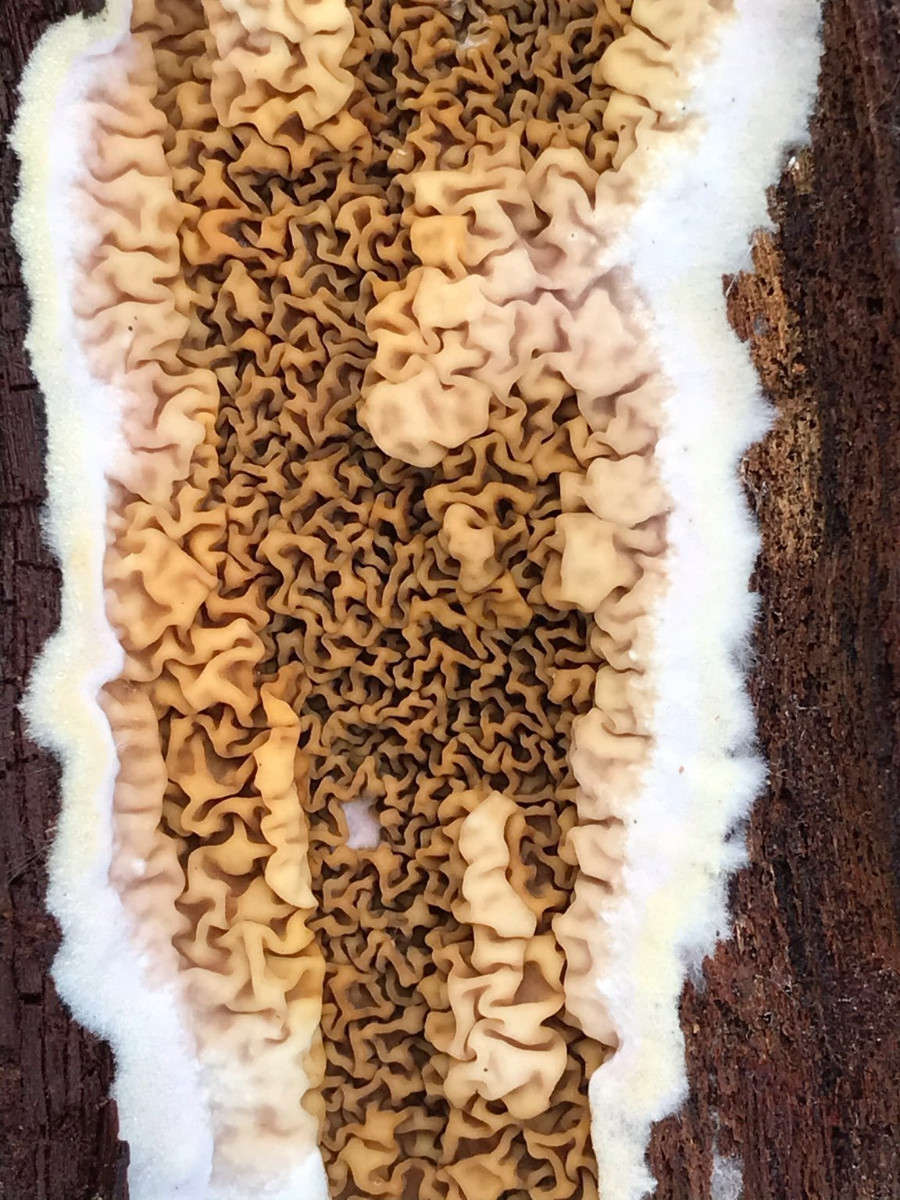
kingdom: Fungi
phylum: Basidiomycota
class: Agaricomycetes
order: Boletales
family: Serpulaceae
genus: Serpula
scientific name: Serpula himantioides
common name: tyndkødet hussvamp
